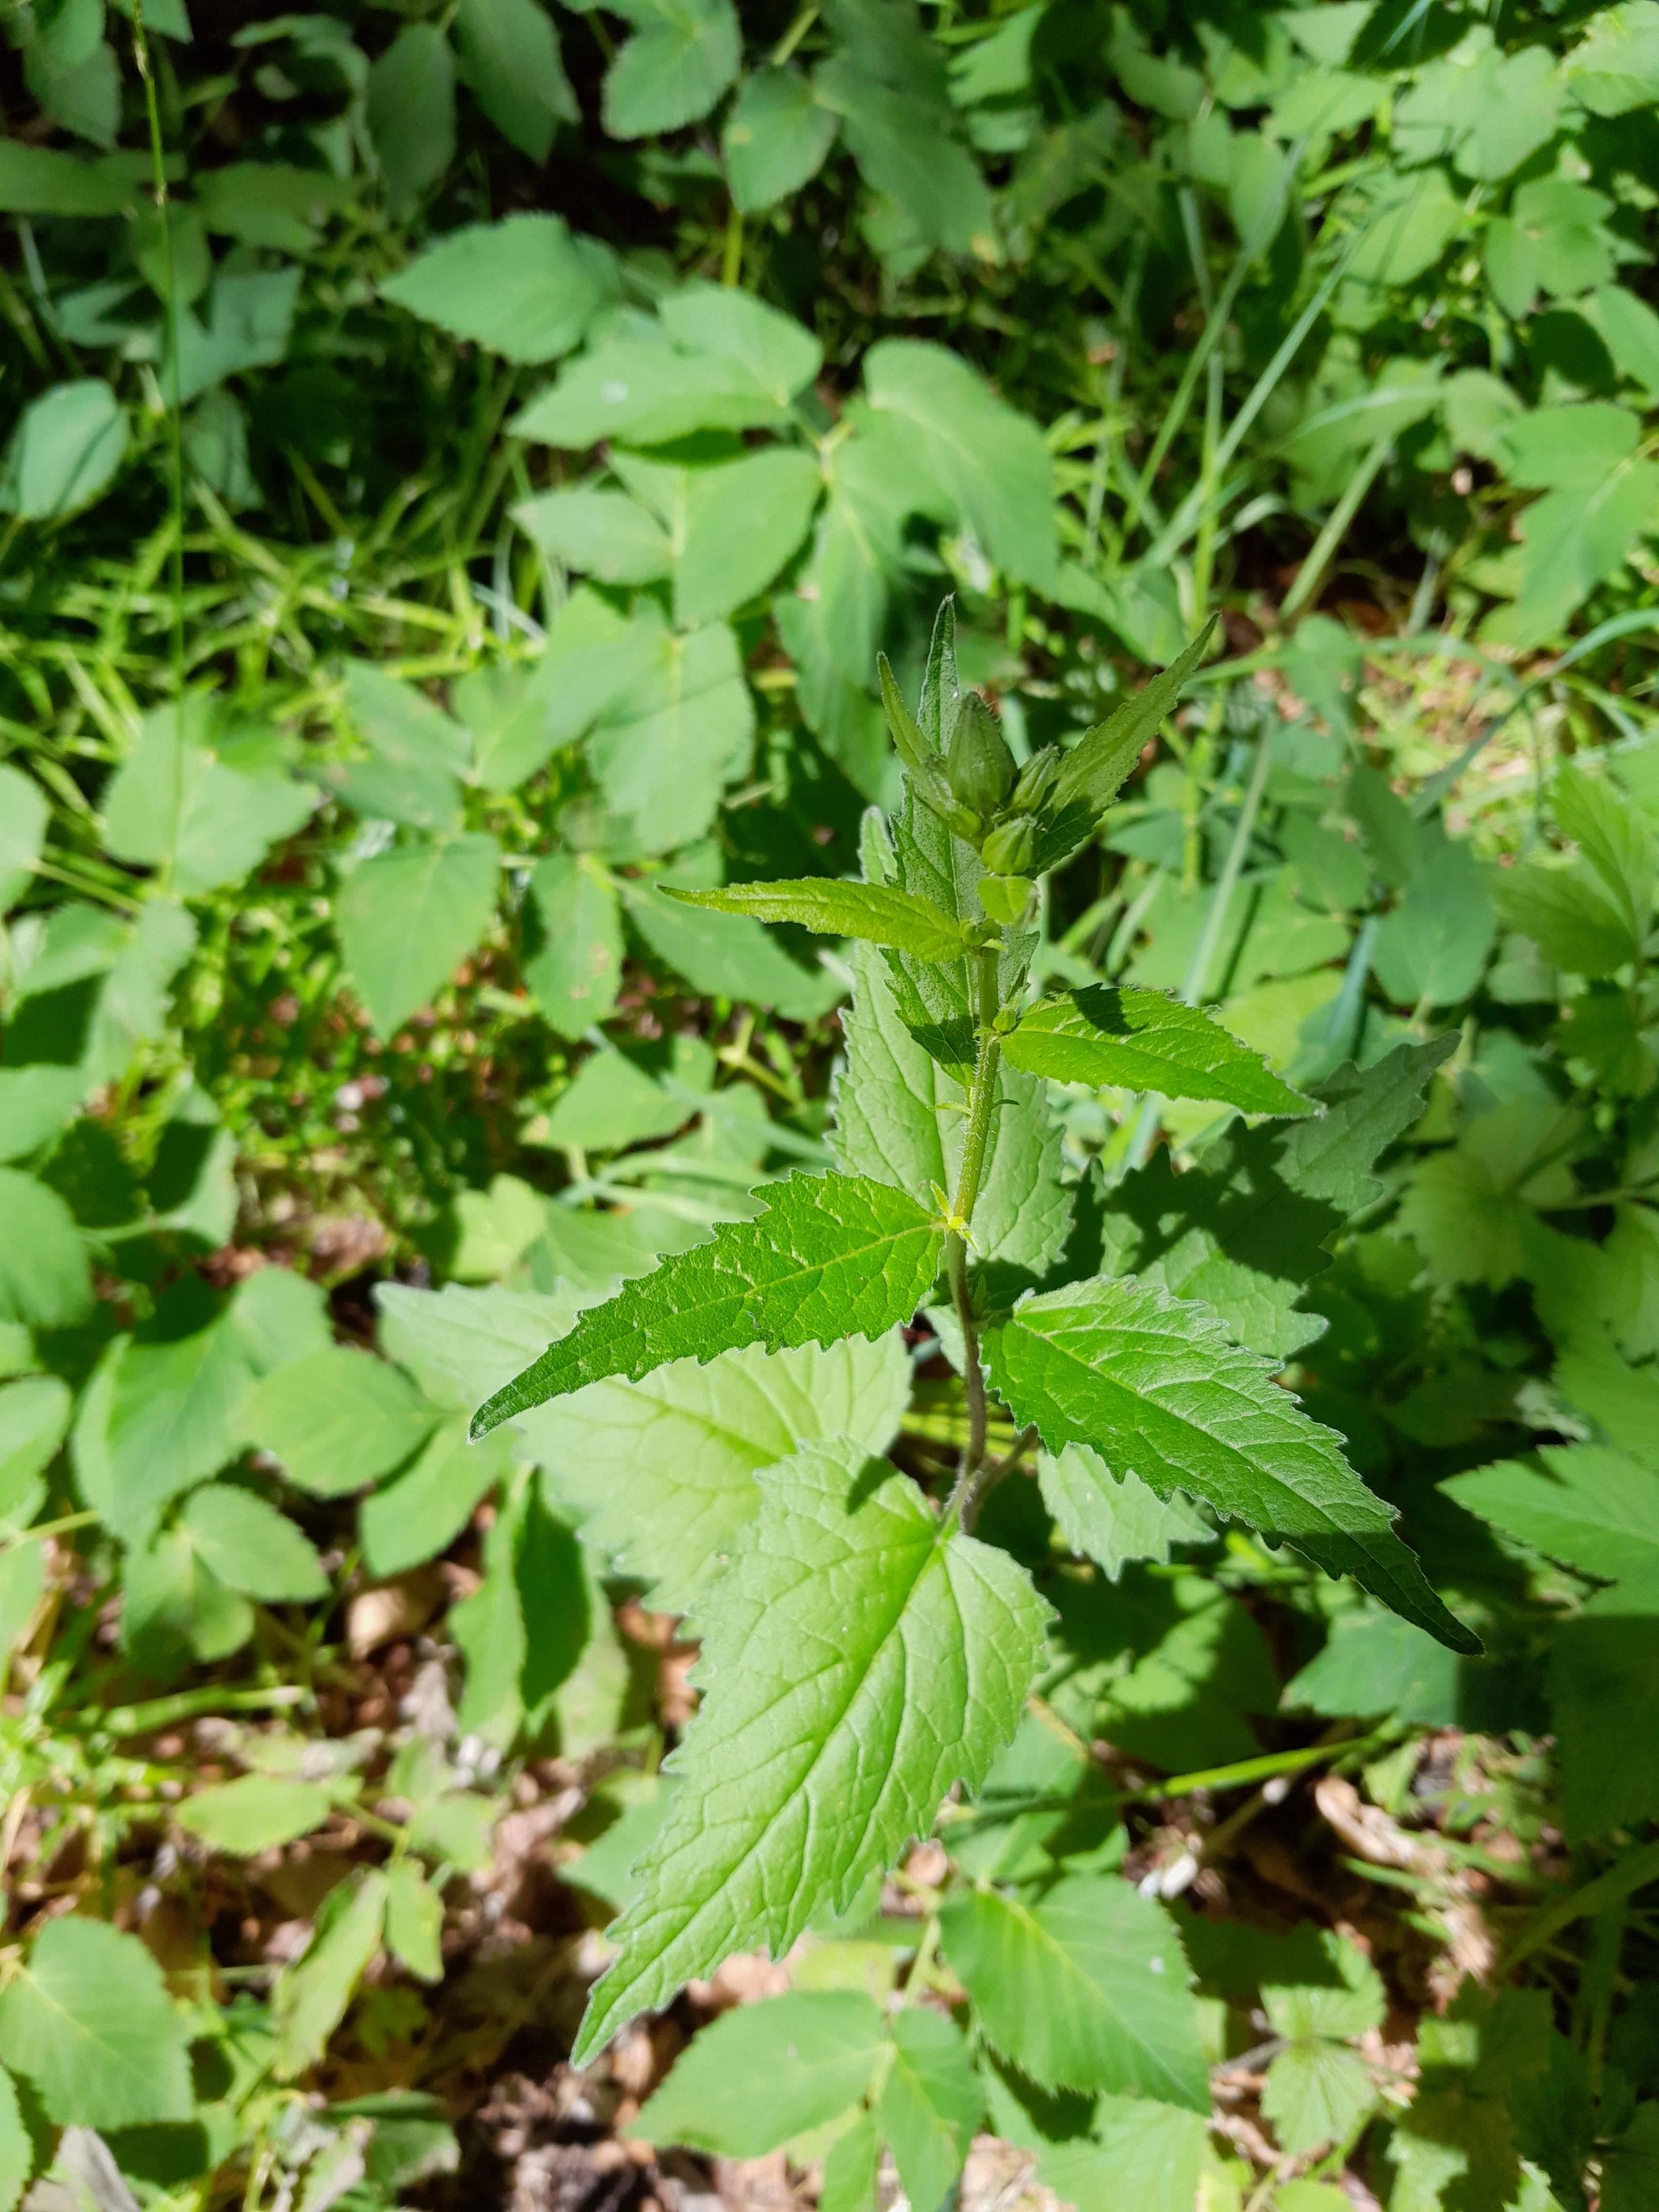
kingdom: Plantae
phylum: Tracheophyta
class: Magnoliopsida
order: Asterales
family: Campanulaceae
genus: Campanula
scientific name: Campanula trachelium
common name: Nælde-klokke
